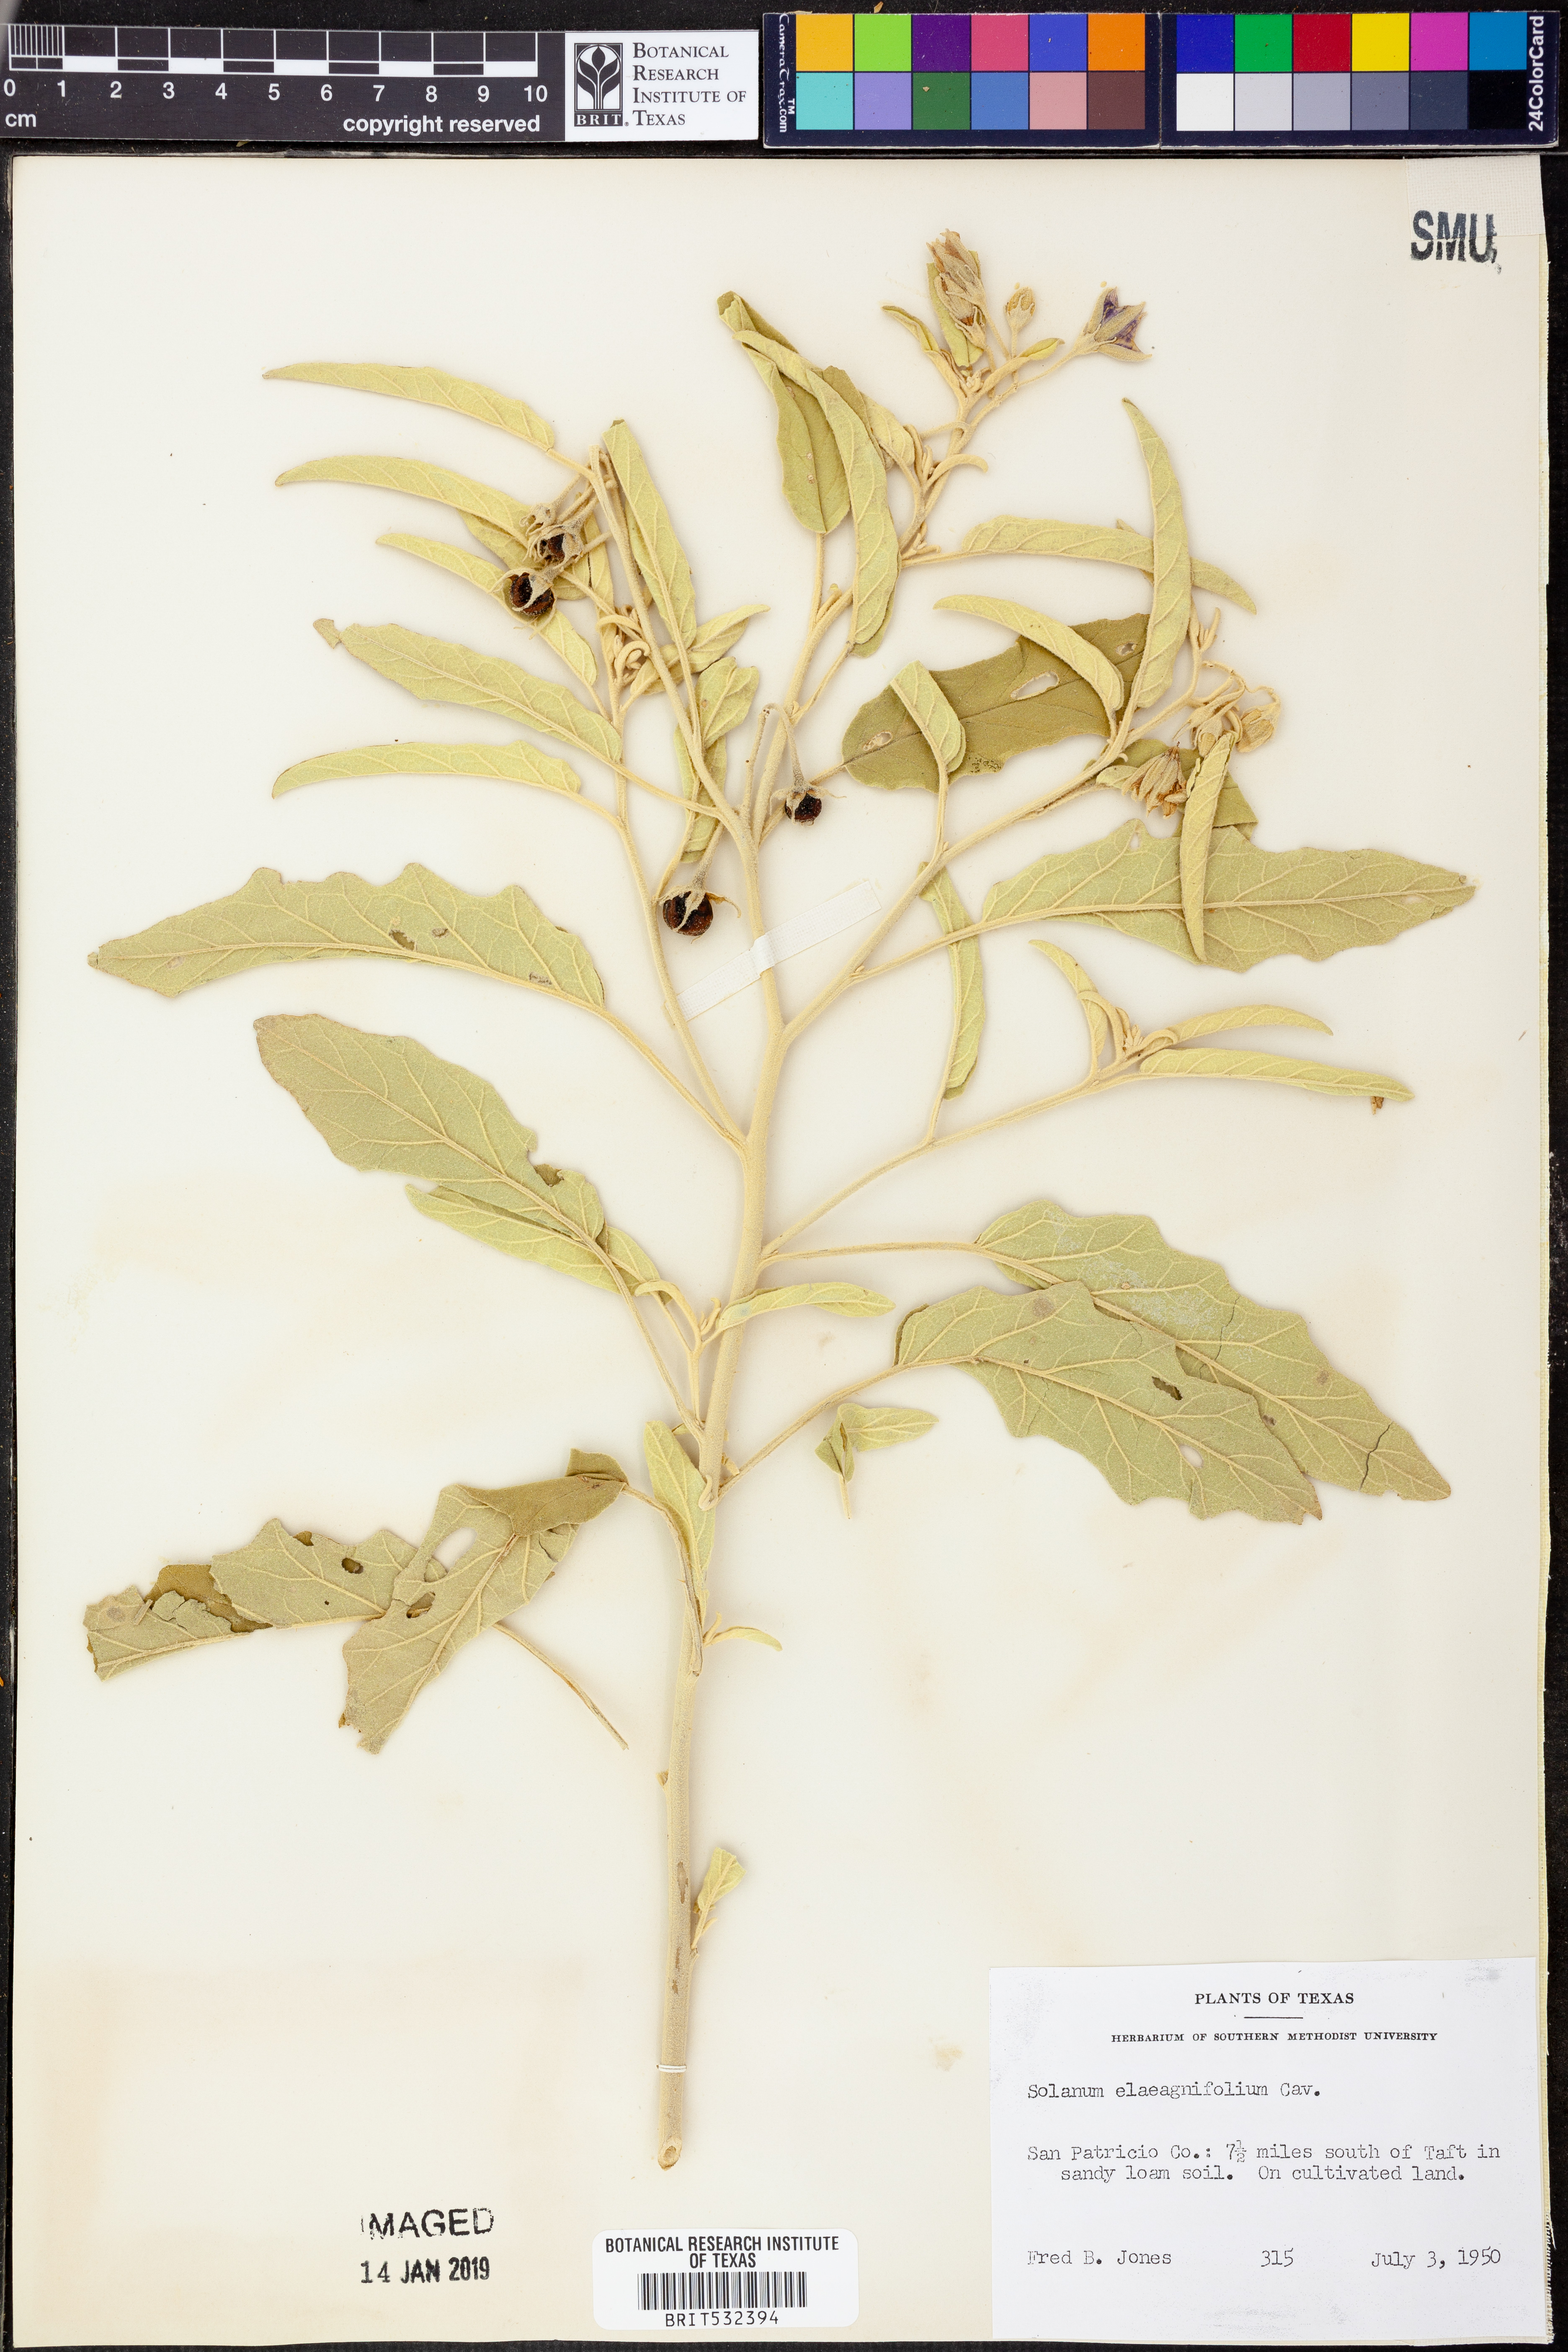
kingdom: Plantae
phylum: Tracheophyta
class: Magnoliopsida
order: Solanales
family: Solanaceae
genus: Solanum
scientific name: Solanum elaeagnifolium
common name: Silverleaf nightshade
